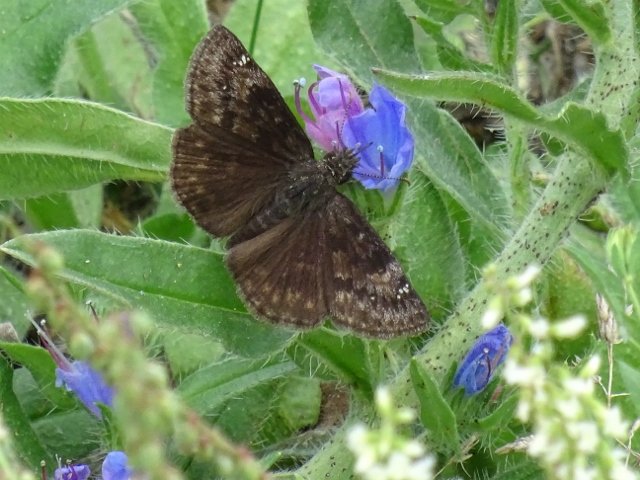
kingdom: Animalia
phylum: Arthropoda
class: Insecta
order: Lepidoptera
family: Hesperiidae
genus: Gesta
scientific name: Gesta
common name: Wild Indigo Duskywing
